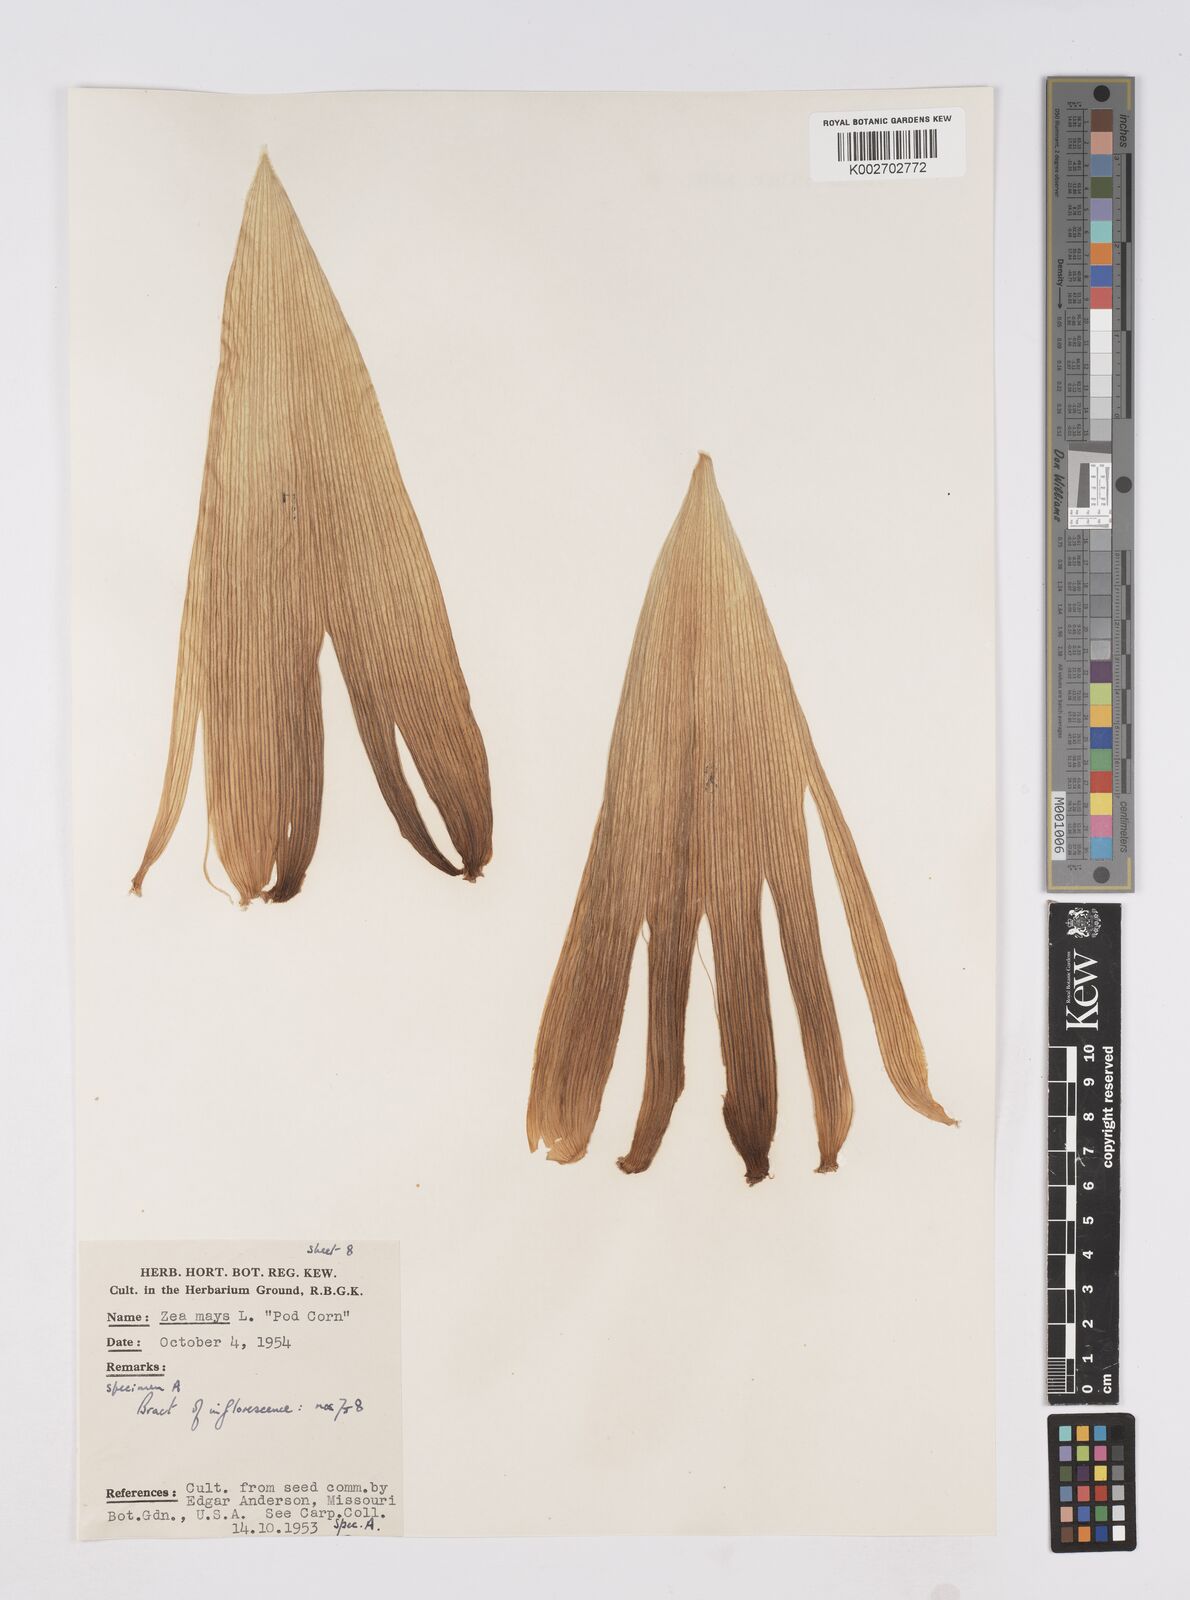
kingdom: Plantae
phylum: Tracheophyta
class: Liliopsida
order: Poales
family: Poaceae
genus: Zea
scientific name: Zea mays
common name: Maize
